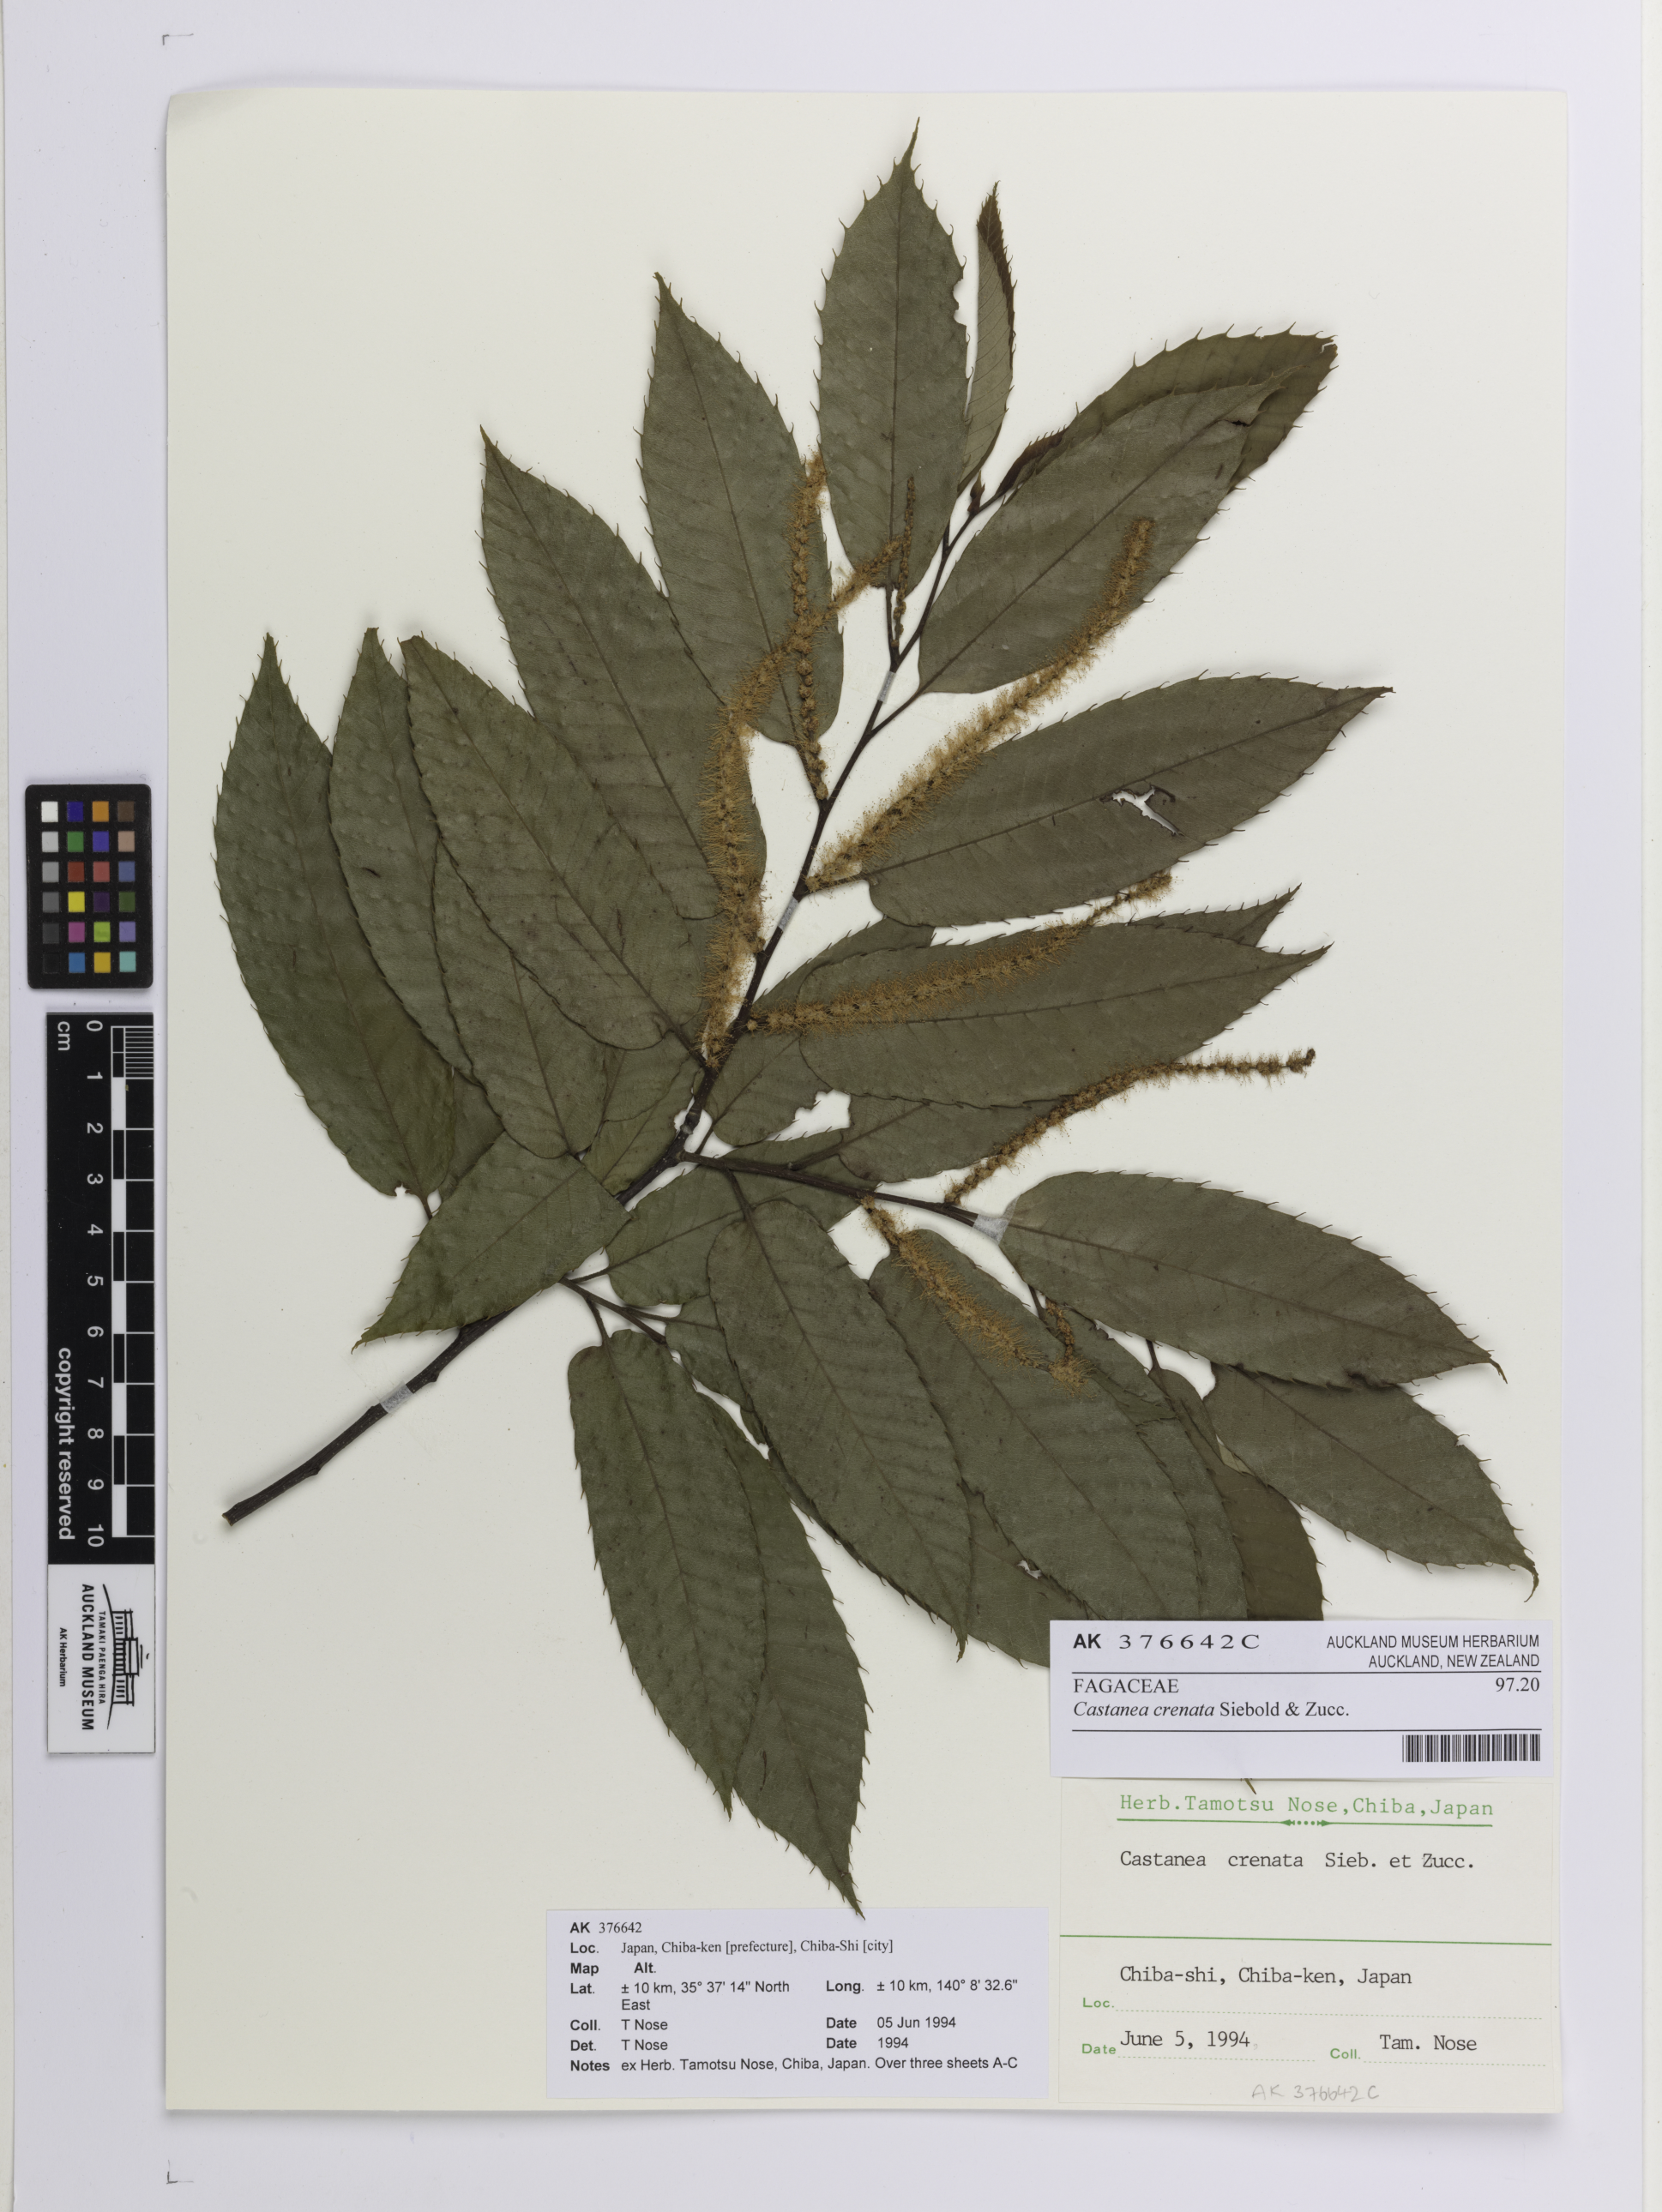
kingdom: Plantae
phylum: Tracheophyta
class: Magnoliopsida
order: Fagales
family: Fagaceae
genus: Castanea
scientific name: Castanea crenata
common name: Japanese chestnut
